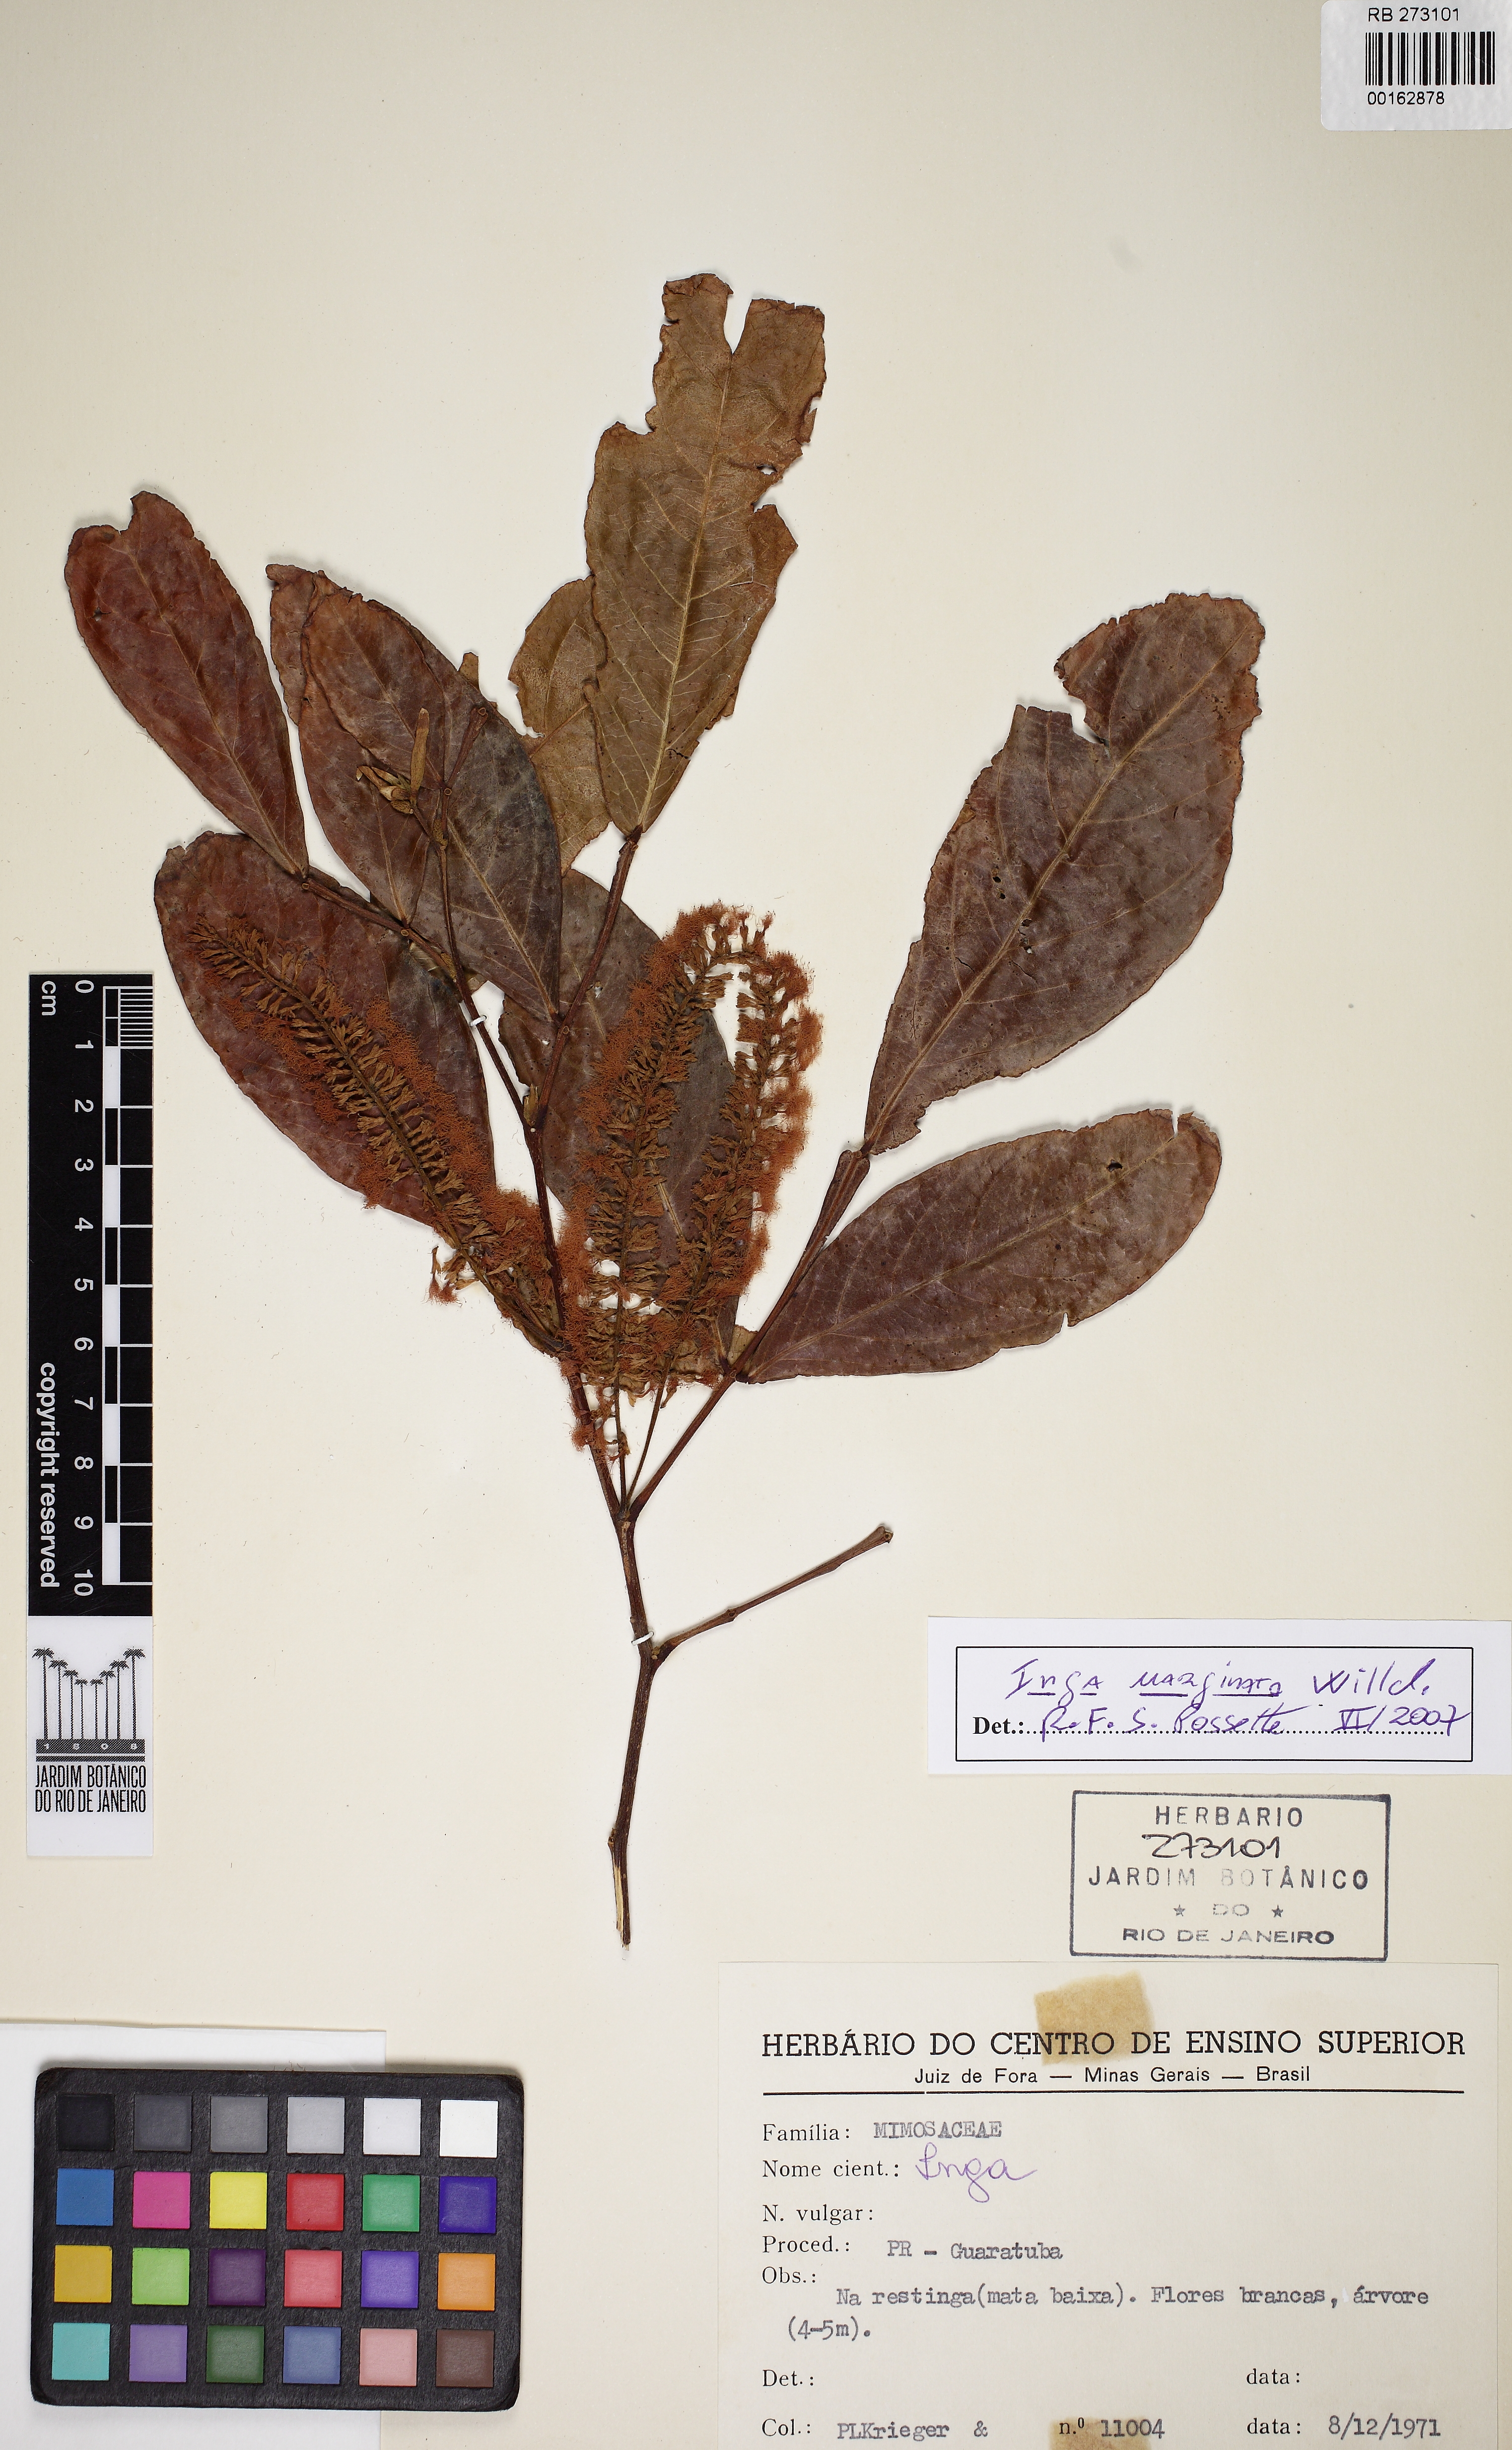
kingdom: Plantae
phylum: Tracheophyta
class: Magnoliopsida
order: Fabales
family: Fabaceae
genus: Inga
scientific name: Inga marginata
